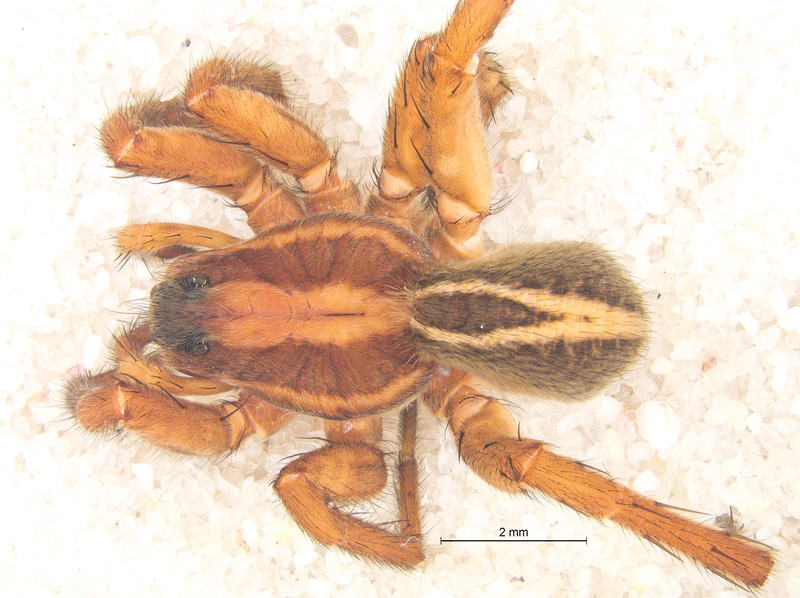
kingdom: Animalia
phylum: Arthropoda
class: Arachnida
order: Araneae
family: Lycosidae
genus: Alopecosa
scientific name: Alopecosa cuneata
